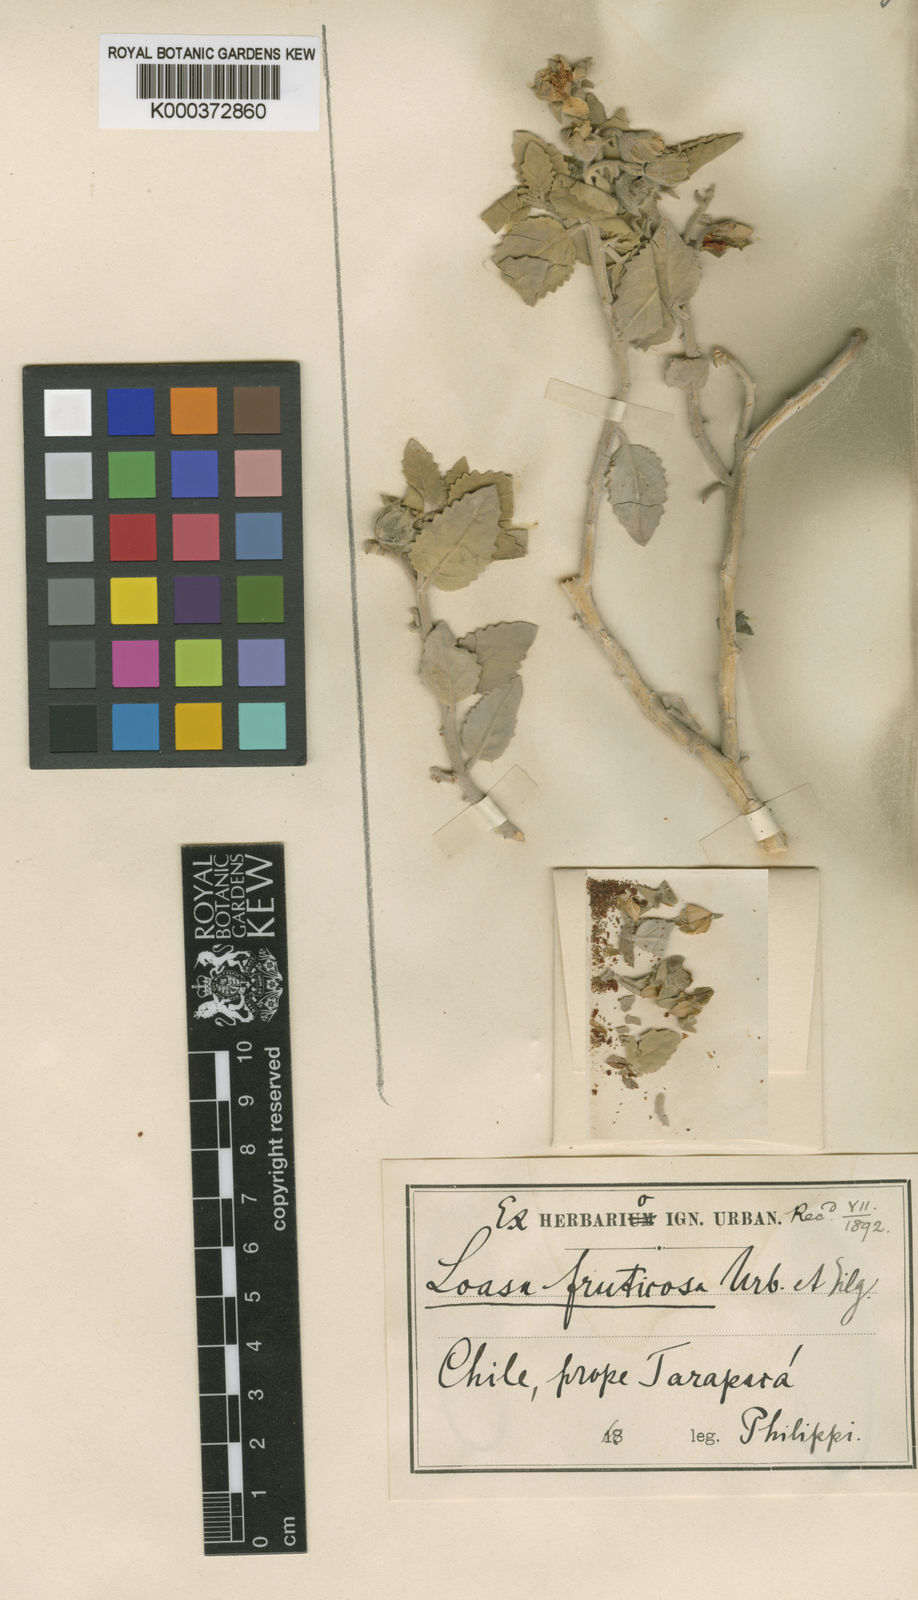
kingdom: Plantae
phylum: Tracheophyta
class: Magnoliopsida
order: Cornales
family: Loasaceae
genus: Huidobria
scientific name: Huidobria fruticosa
